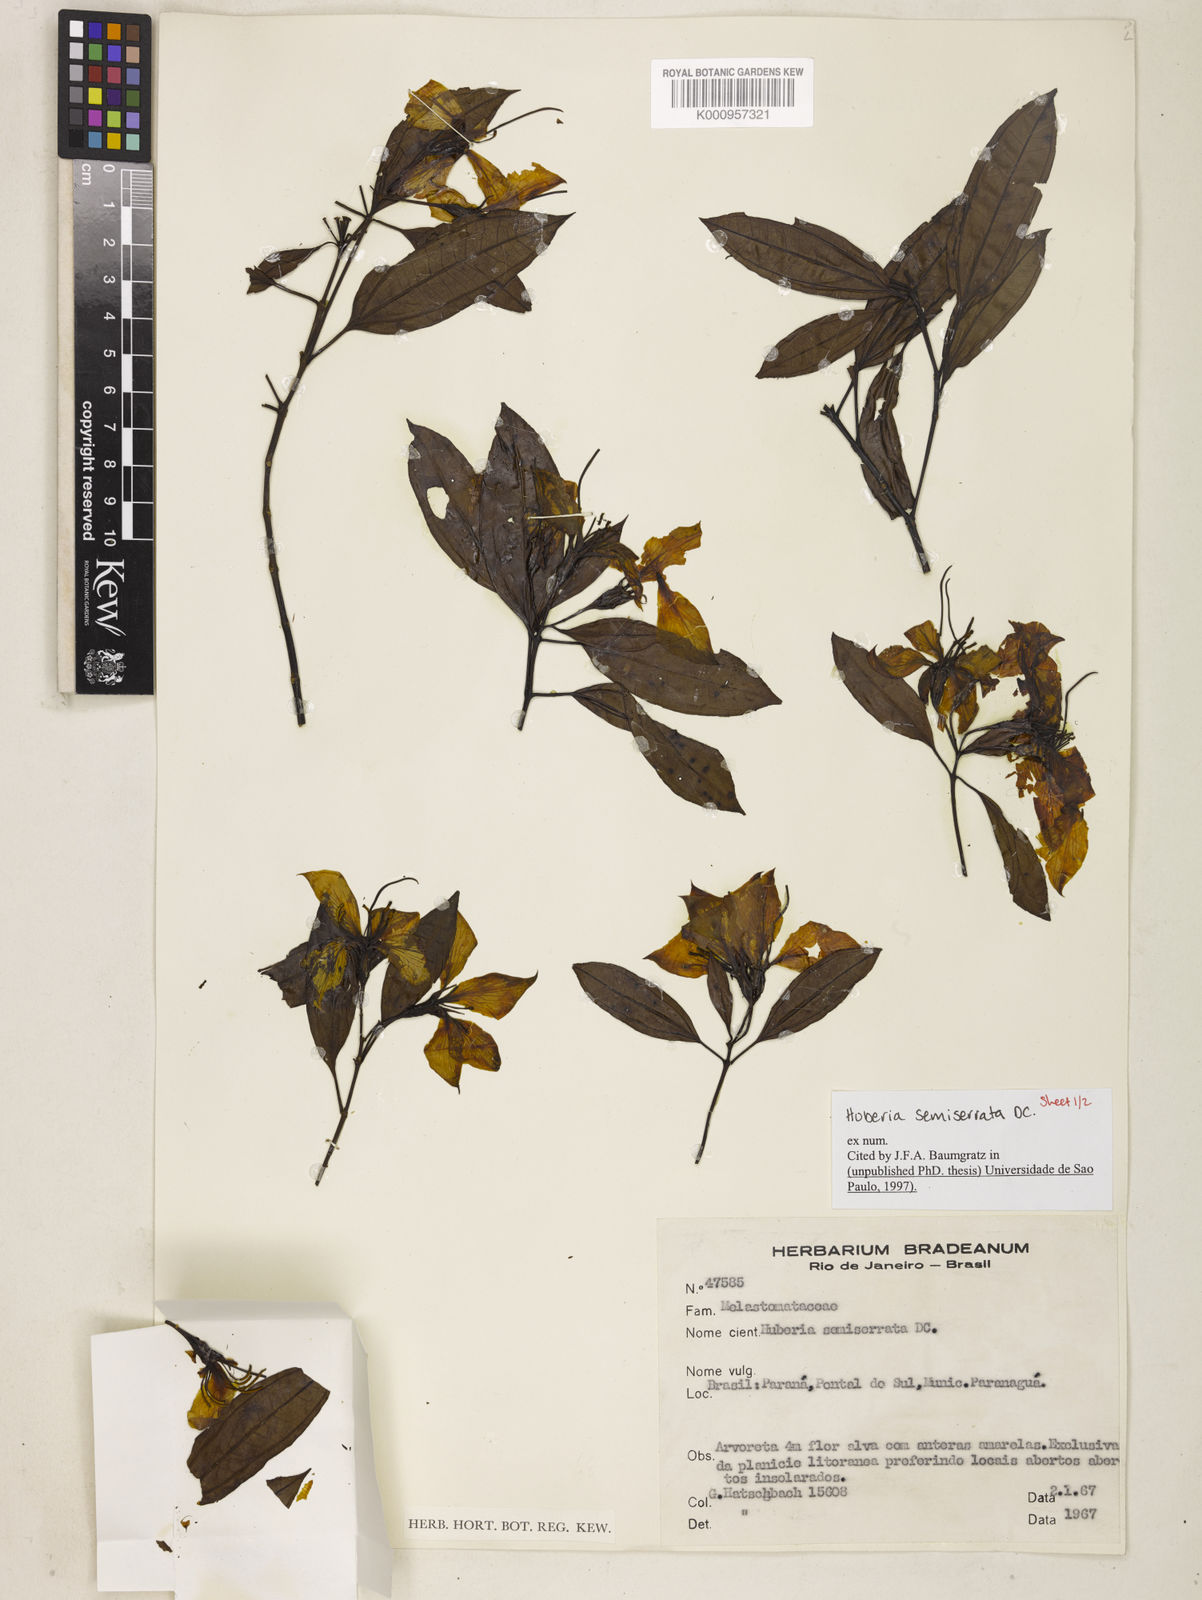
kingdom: Plantae
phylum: Tracheophyta
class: Magnoliopsida
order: Myrtales
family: Melastomataceae
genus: Huberia
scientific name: Huberia semiserrata
